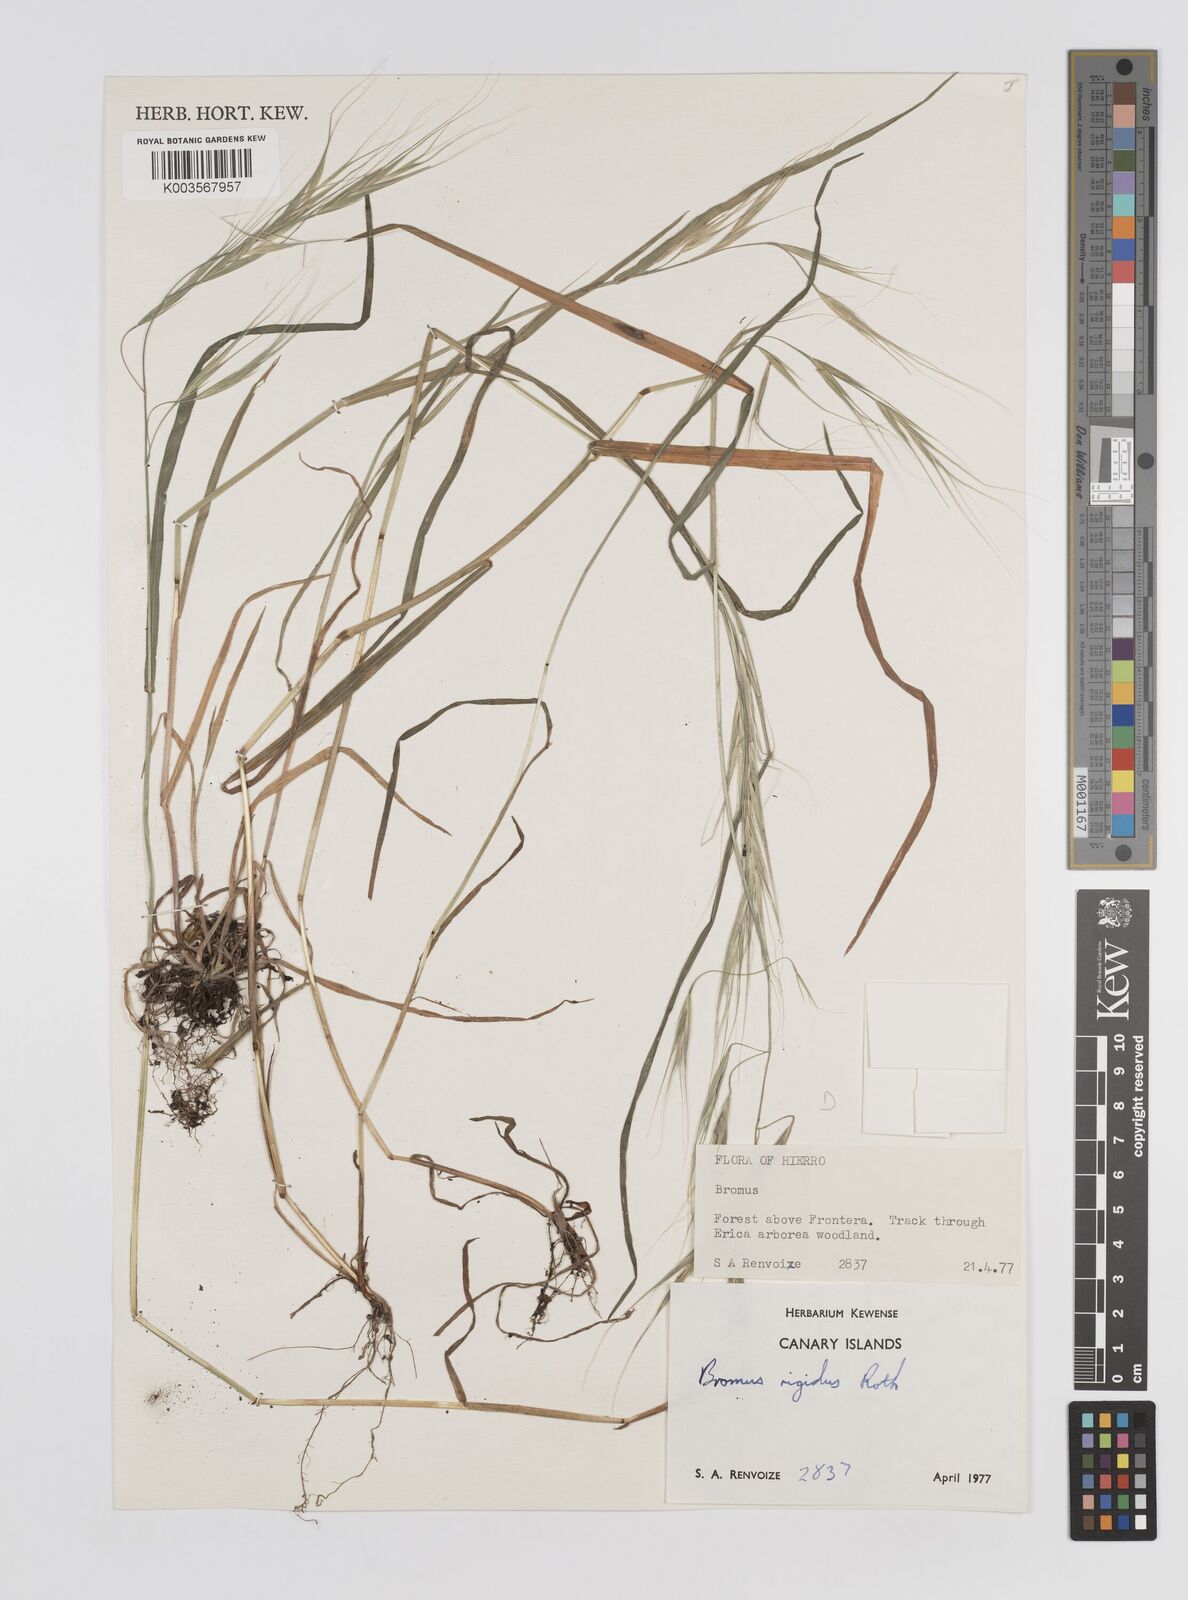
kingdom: Plantae
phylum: Tracheophyta
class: Liliopsida
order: Poales
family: Poaceae
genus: Bromus
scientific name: Bromus diandrus
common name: Ripgut brome
